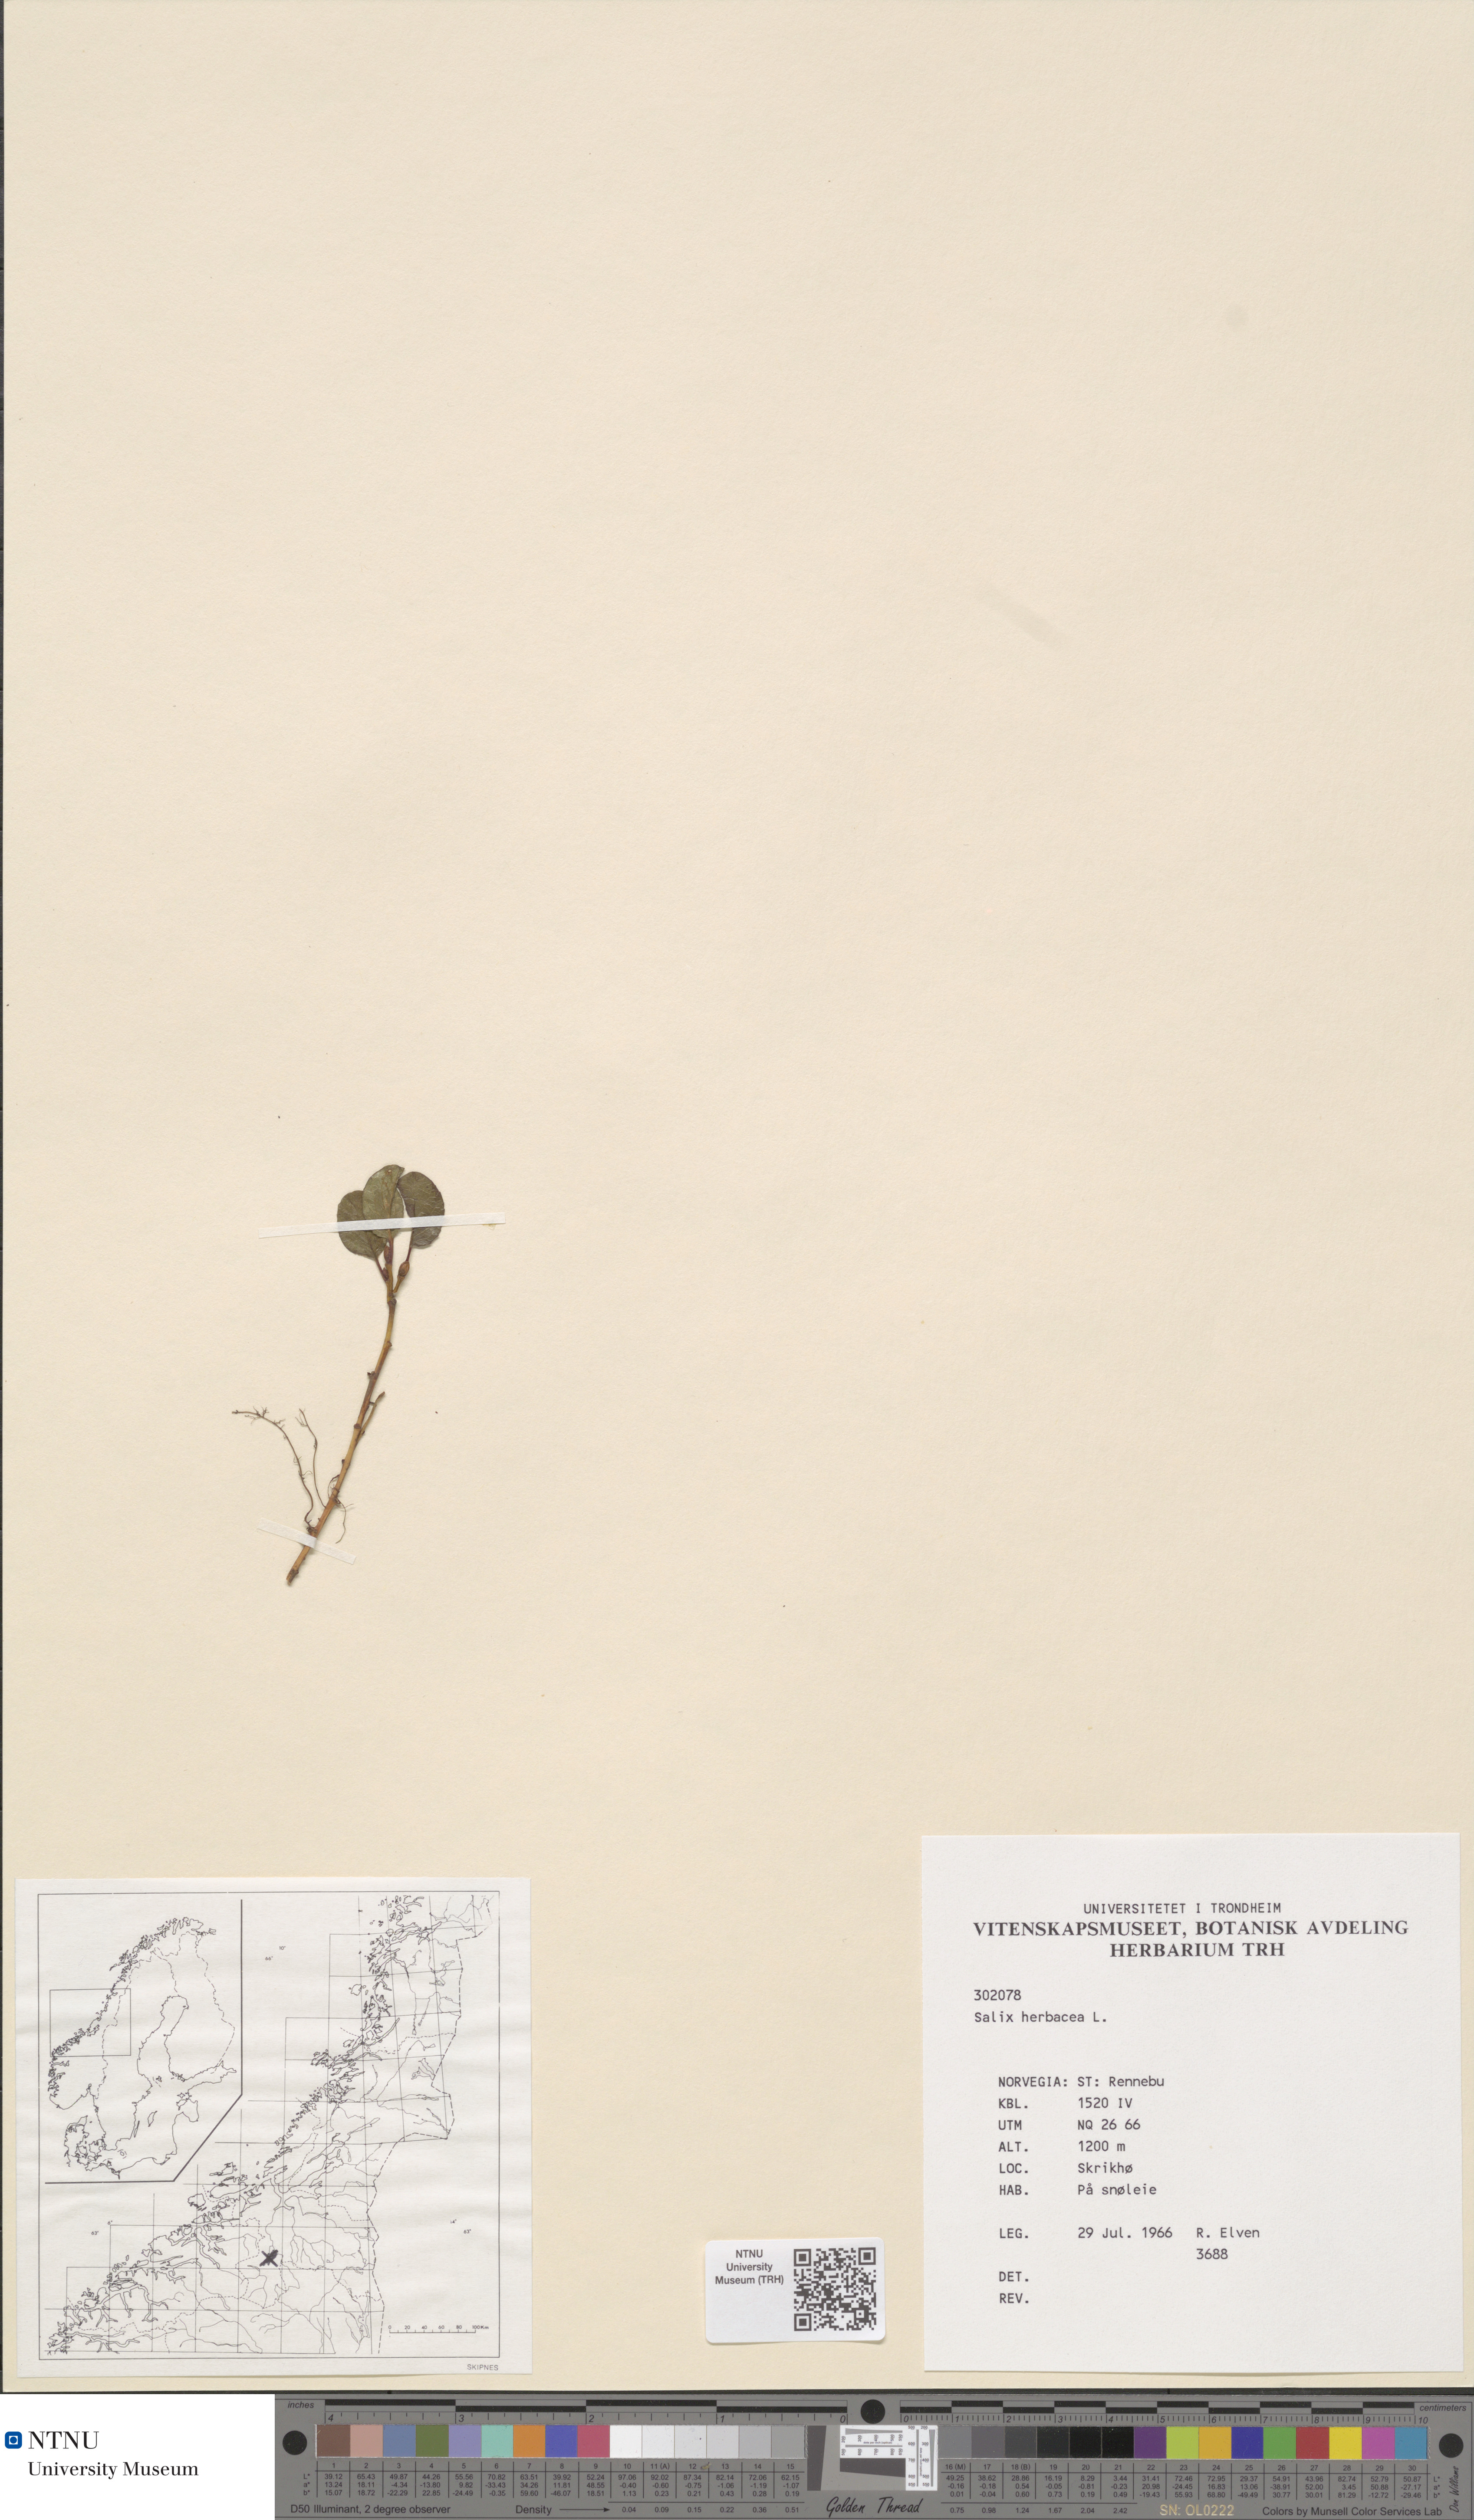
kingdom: Plantae
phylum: Tracheophyta
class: Magnoliopsida
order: Malpighiales
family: Salicaceae
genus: Salix
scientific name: Salix herbacea
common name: Dwarf willow
